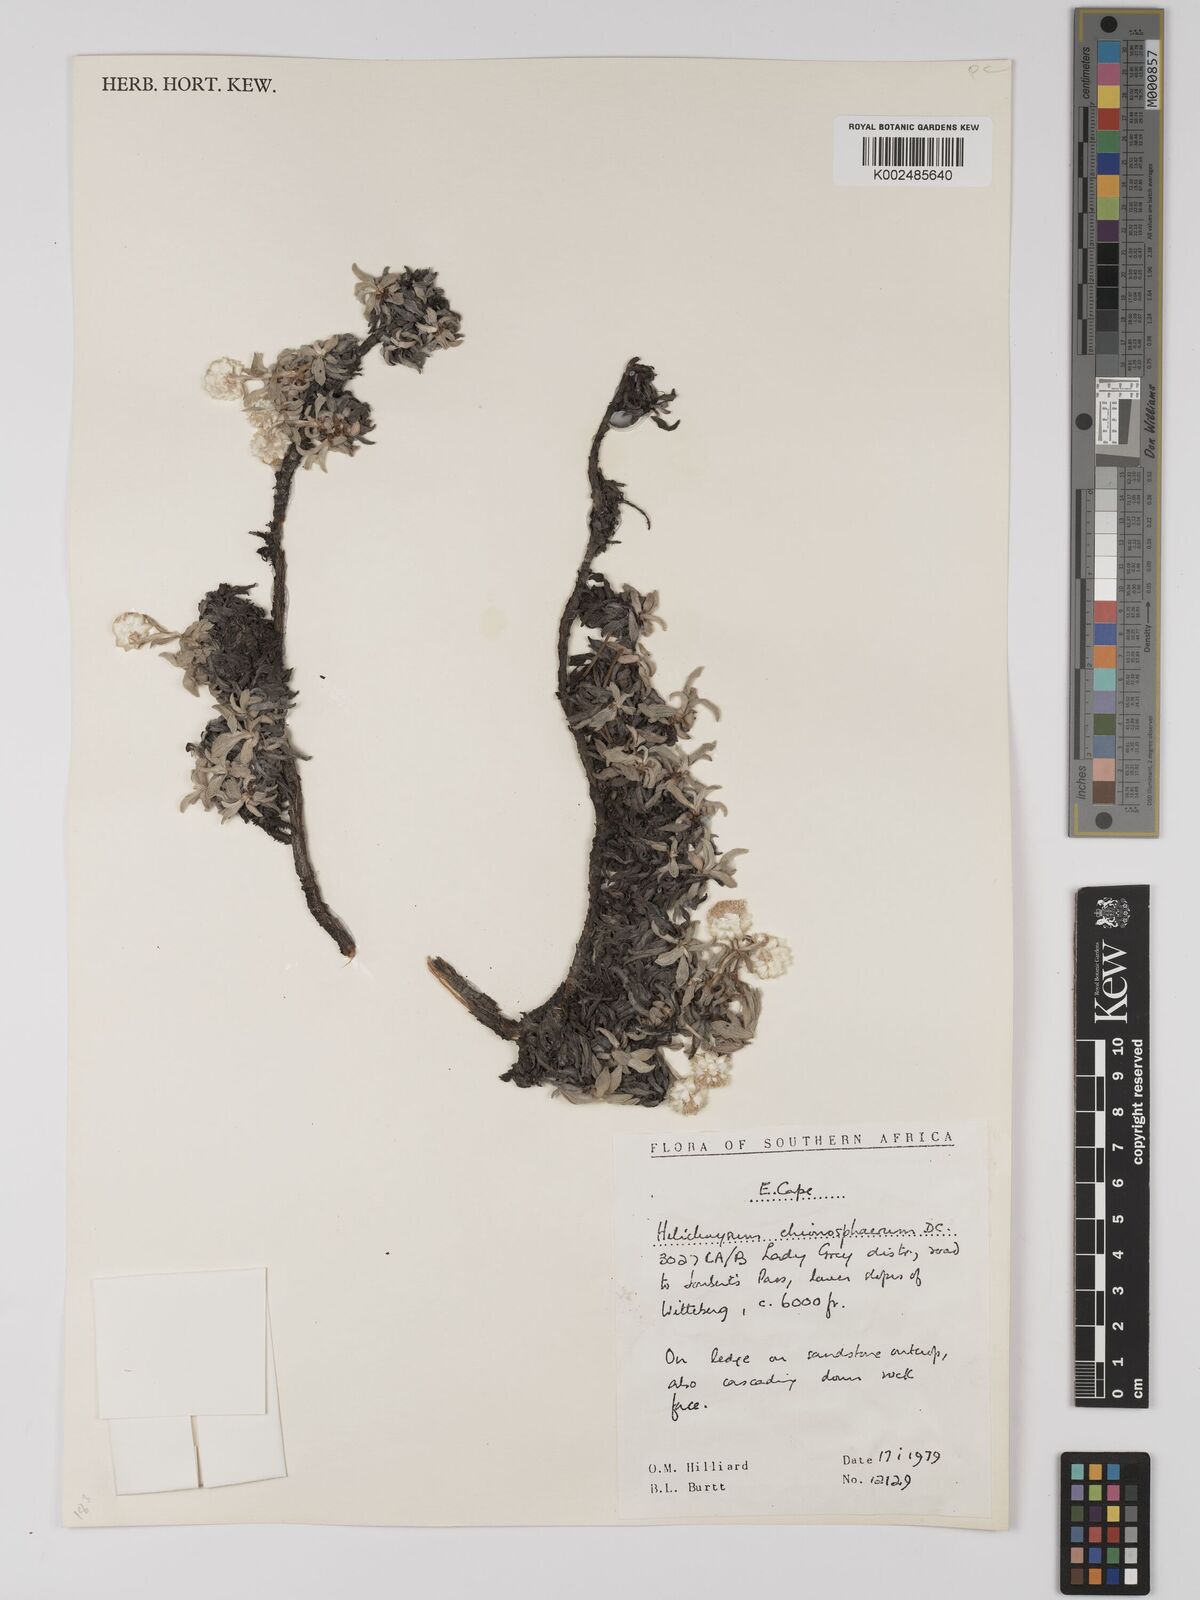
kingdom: Plantae
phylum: Tracheophyta
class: Magnoliopsida
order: Asterales
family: Asteraceae
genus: Helichrysum
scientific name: Helichrysum chionosphaerum
